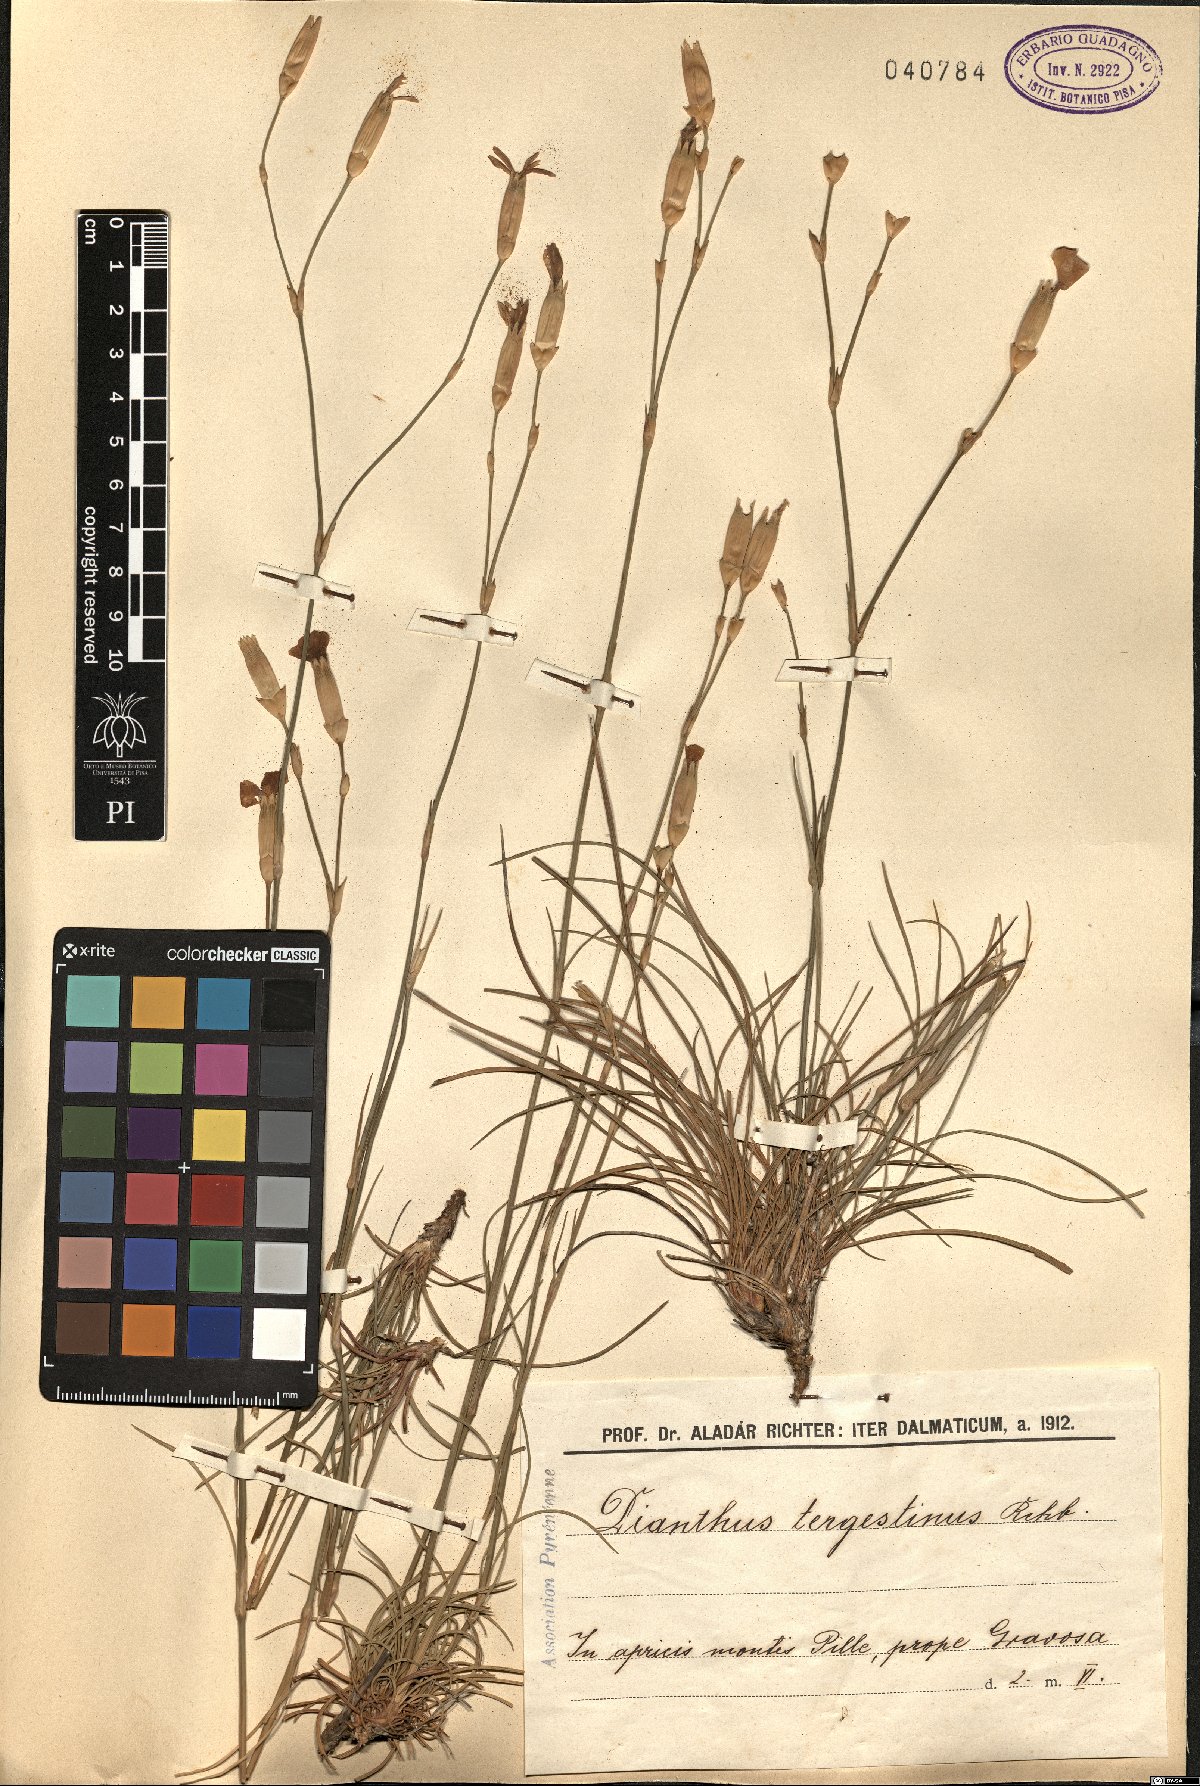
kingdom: Plantae
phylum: Tracheophyta
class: Magnoliopsida
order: Caryophyllales
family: Caryophyllaceae
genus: Dianthus
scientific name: Dianthus sylvestris
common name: Wood pink
